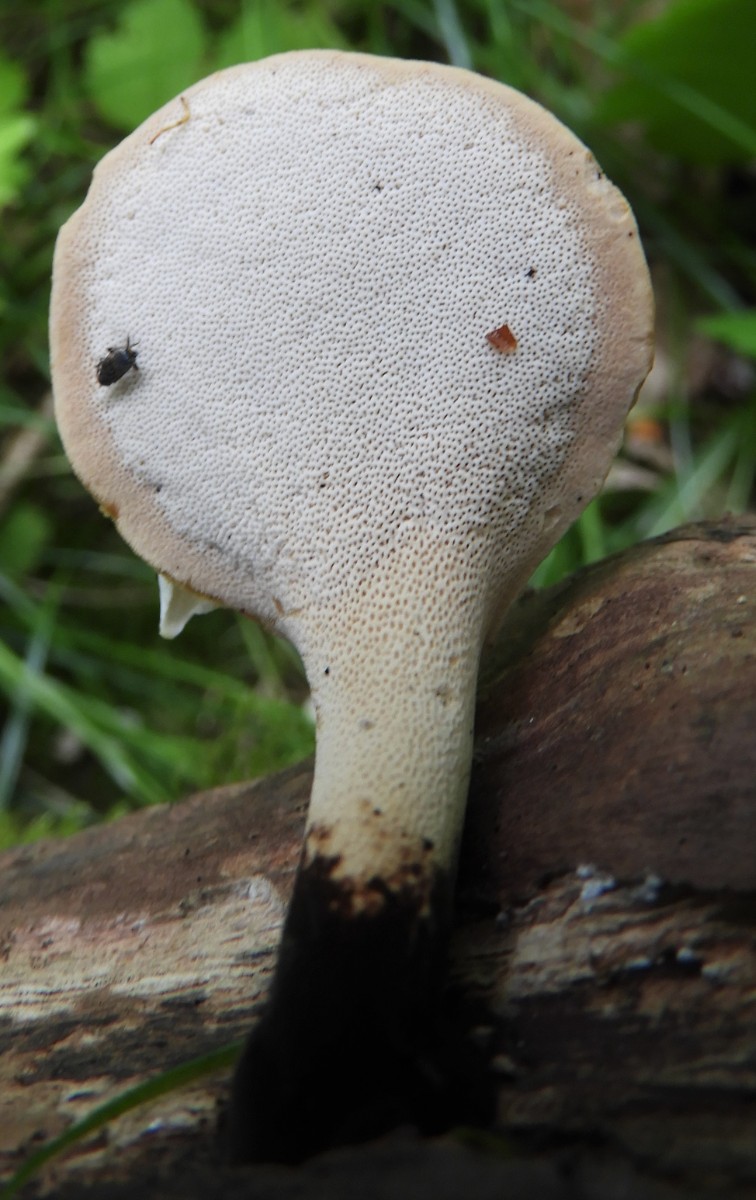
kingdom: Fungi
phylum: Basidiomycota
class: Agaricomycetes
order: Polyporales
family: Polyporaceae
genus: Cerioporus
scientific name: Cerioporus varius
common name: foranderlig stilkporesvamp
